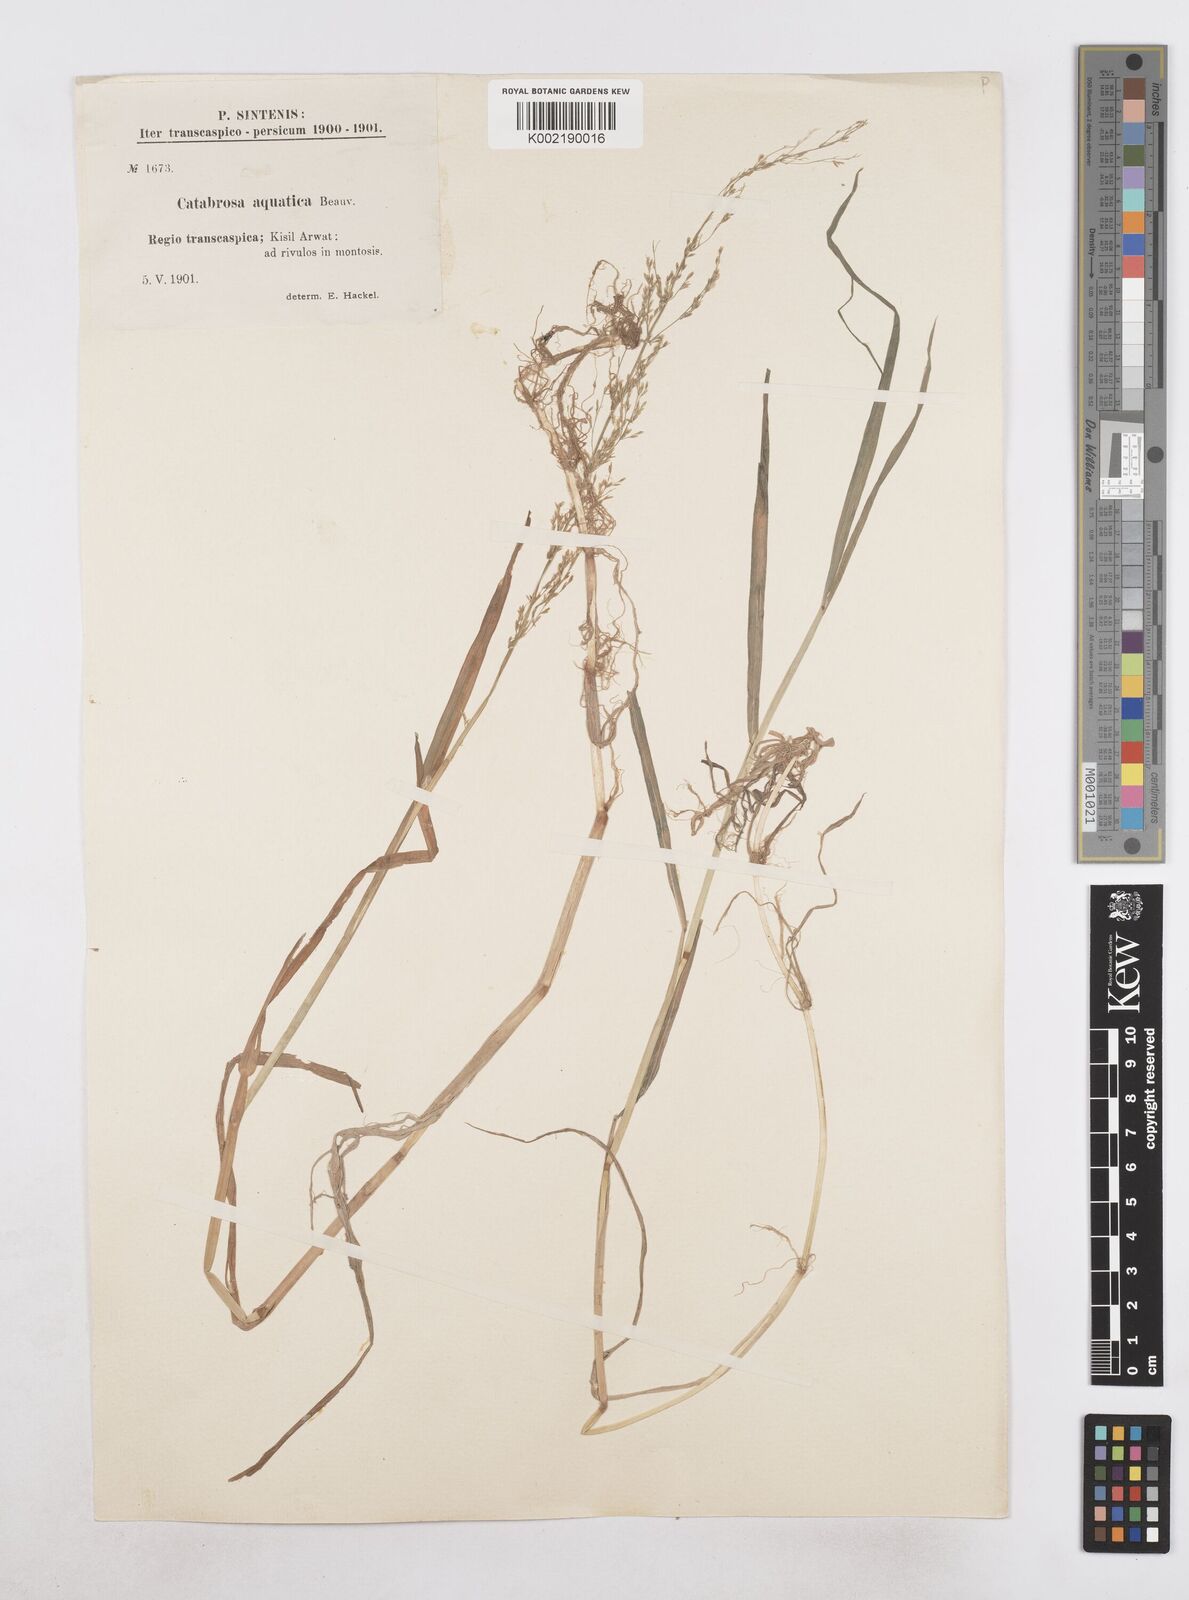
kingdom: Plantae
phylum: Tracheophyta
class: Liliopsida
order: Poales
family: Poaceae
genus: Catabrosa
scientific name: Catabrosa aquatica
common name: Whorl-grass
